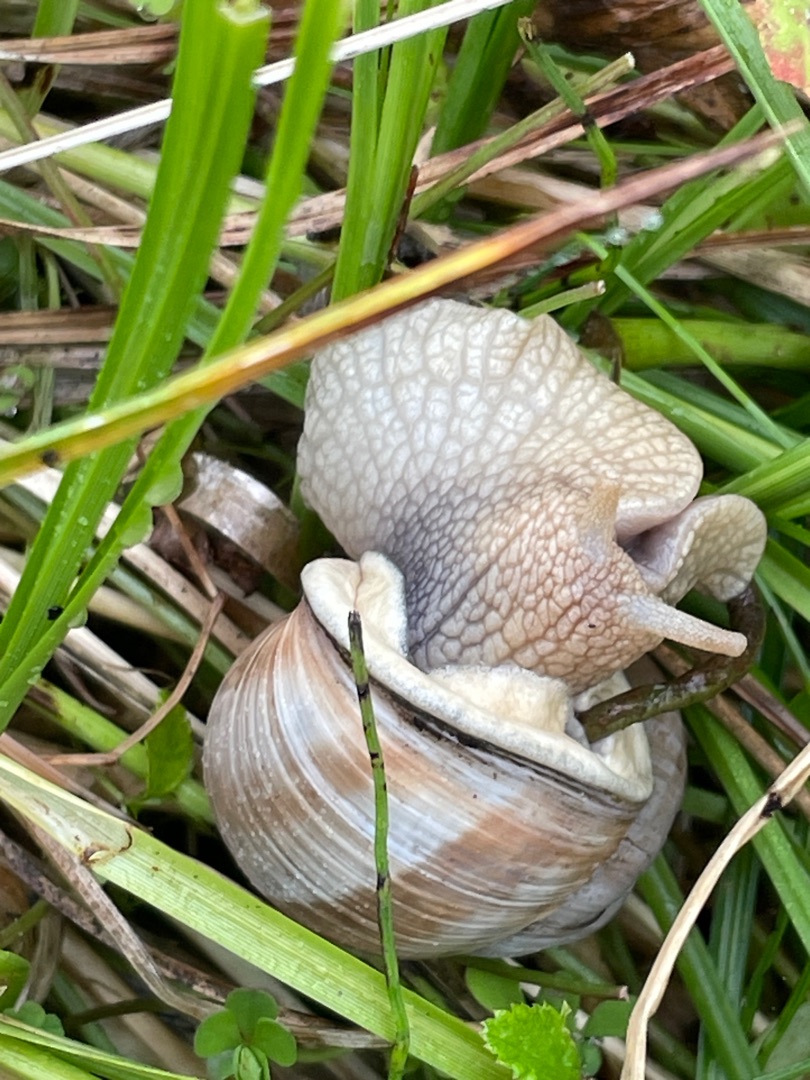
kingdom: Animalia
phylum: Mollusca
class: Gastropoda
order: Stylommatophora
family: Helicidae
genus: Helix
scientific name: Helix pomatia
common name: Vinbjergsnegl
